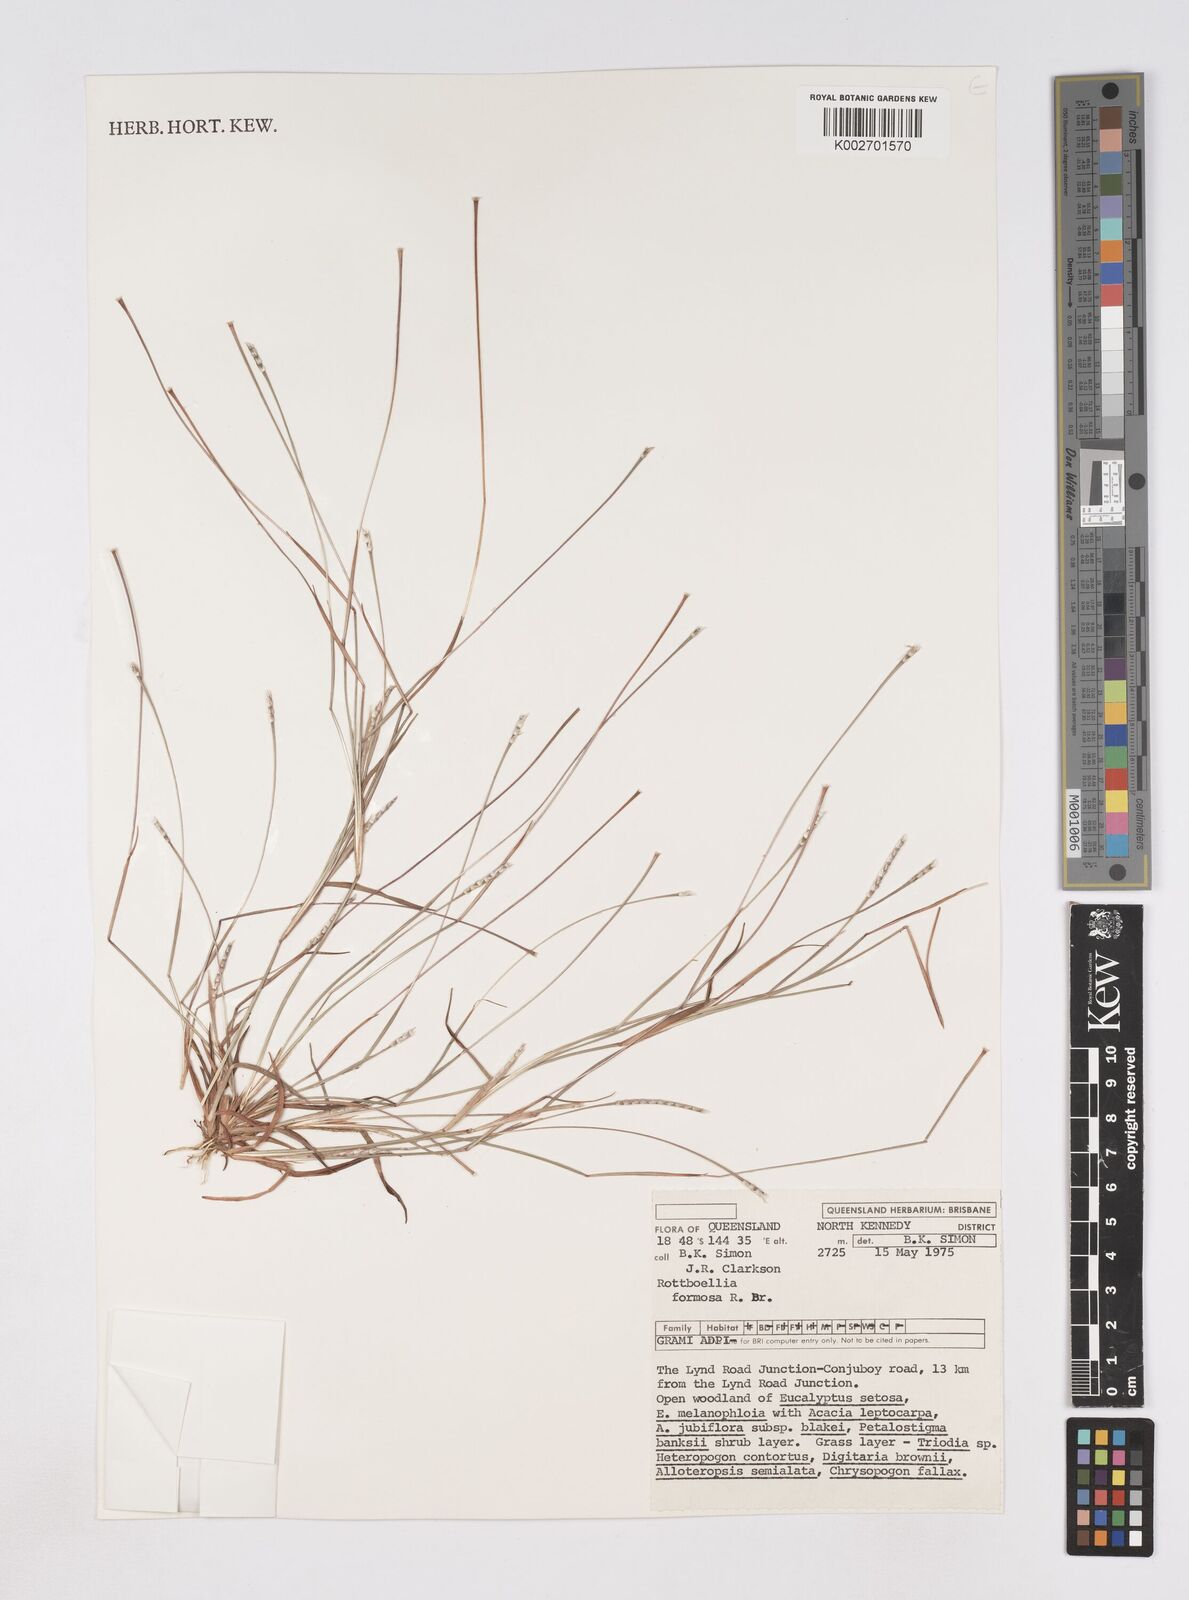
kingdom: Plantae
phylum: Tracheophyta
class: Liliopsida
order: Poales
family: Poaceae
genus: Heteropholis
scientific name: Heteropholis
